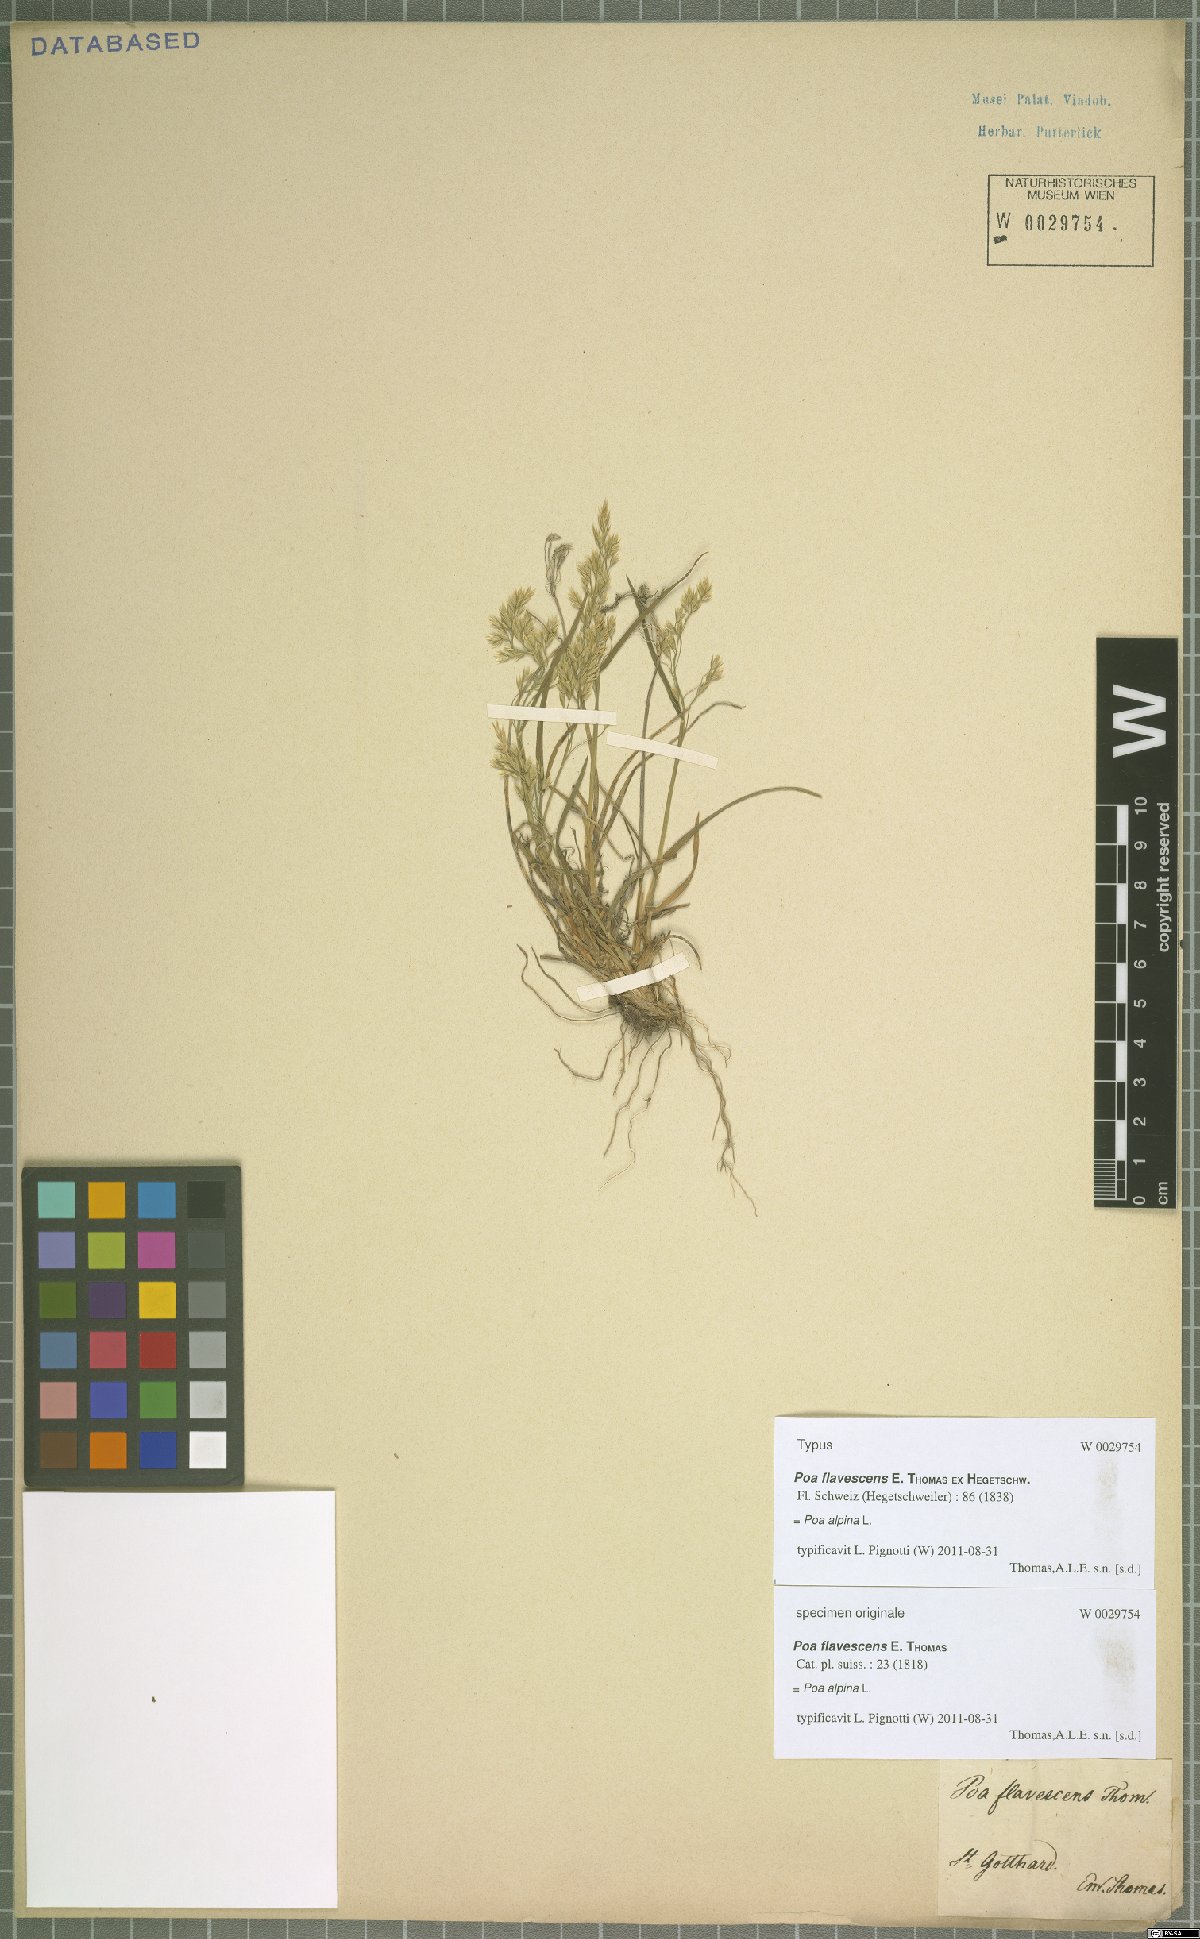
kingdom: Plantae
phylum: Tracheophyta
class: Liliopsida
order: Poales
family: Poaceae
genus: Poa
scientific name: Poa alpina
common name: Alpine bluegrass
